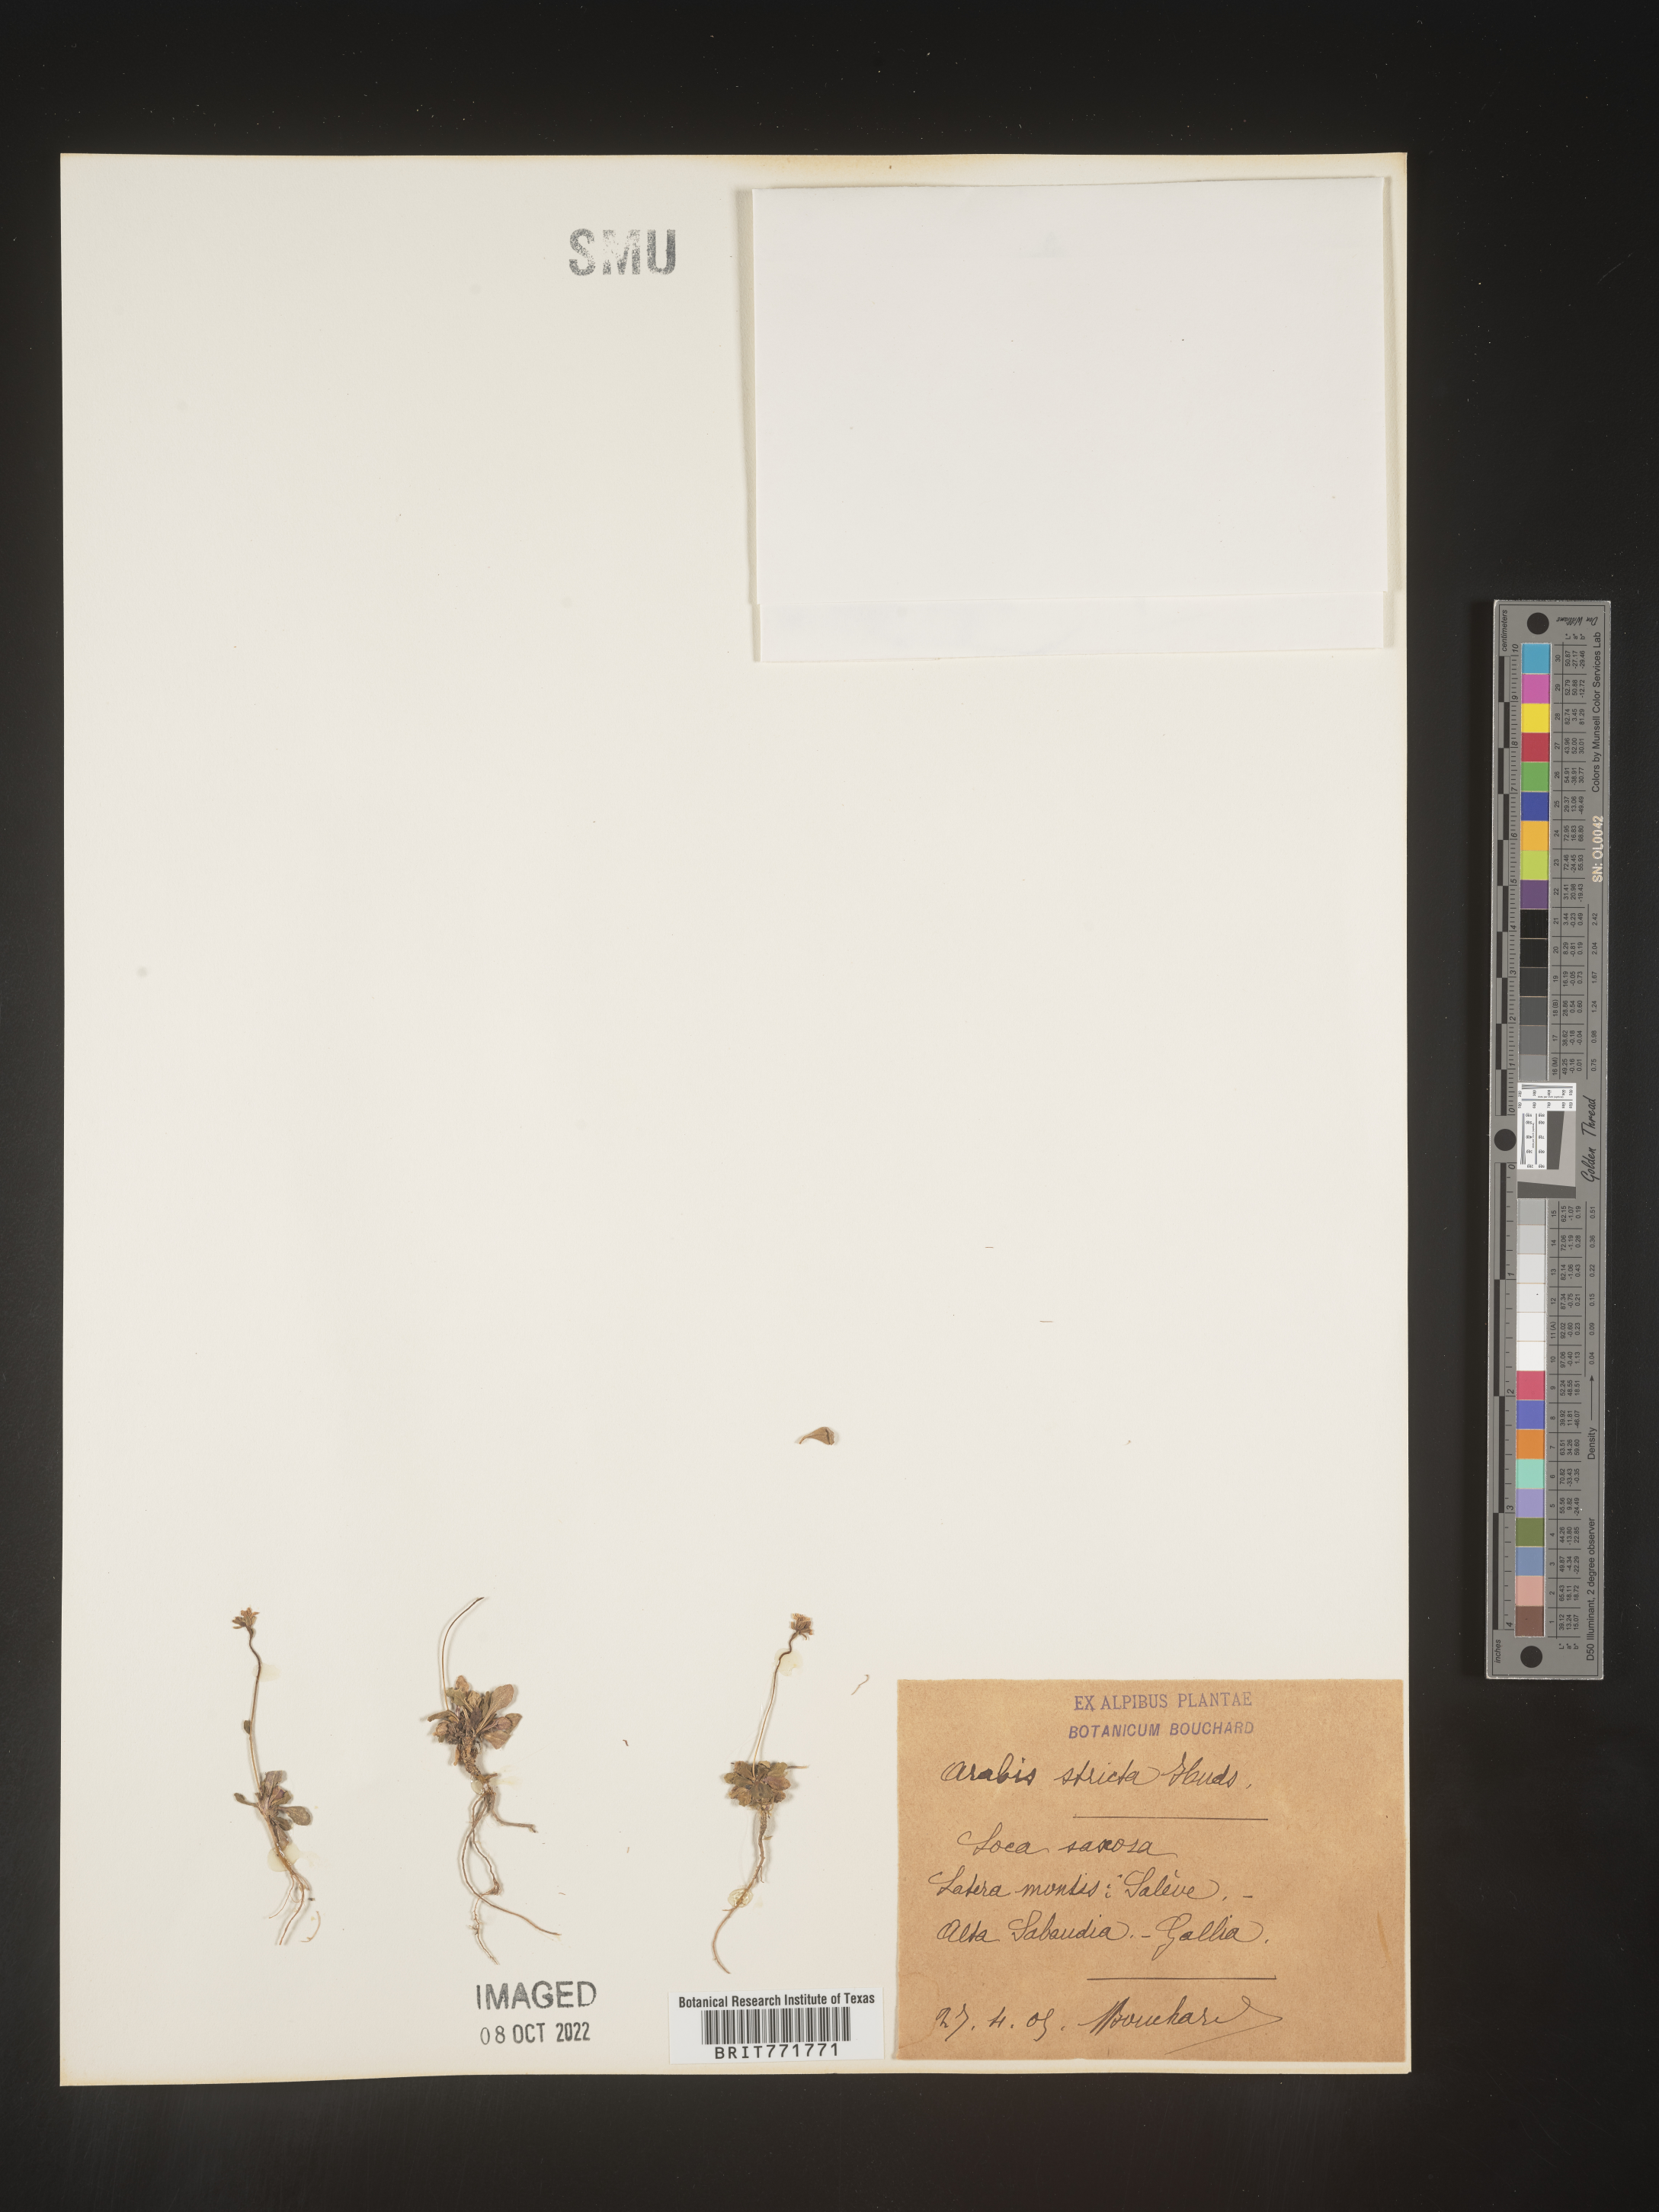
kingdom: Plantae
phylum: Tracheophyta
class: Magnoliopsida
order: Brassicales
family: Brassicaceae
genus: Arabis
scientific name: Arabis
